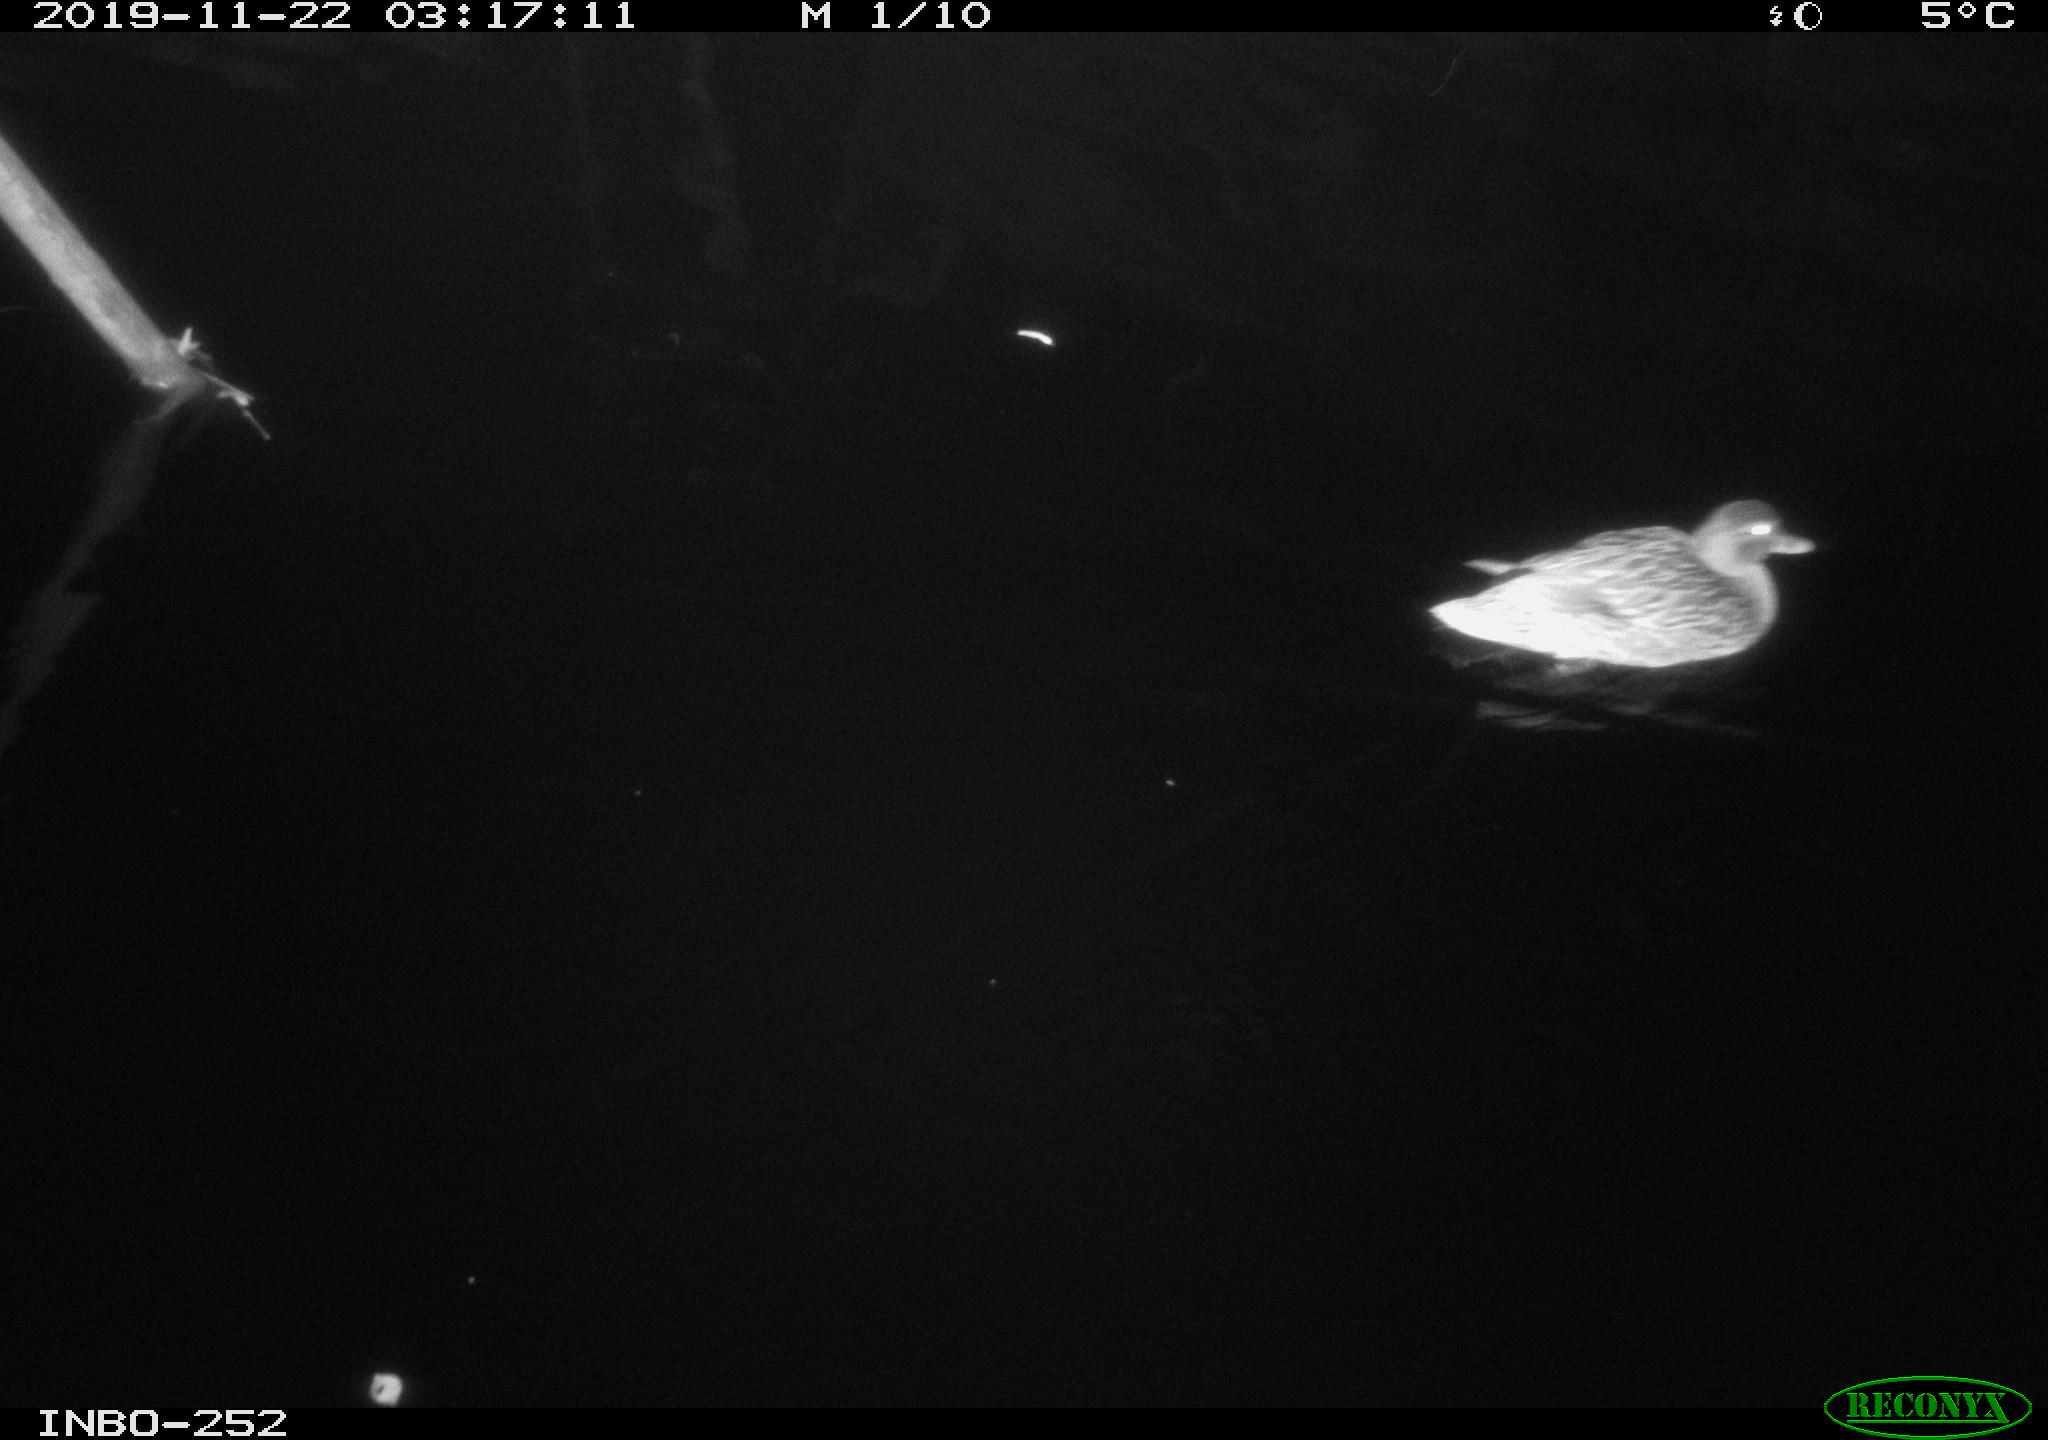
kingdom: Animalia
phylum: Chordata
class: Aves
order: Anseriformes
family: Anatidae
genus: Anas
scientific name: Anas platyrhynchos
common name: Mallard
